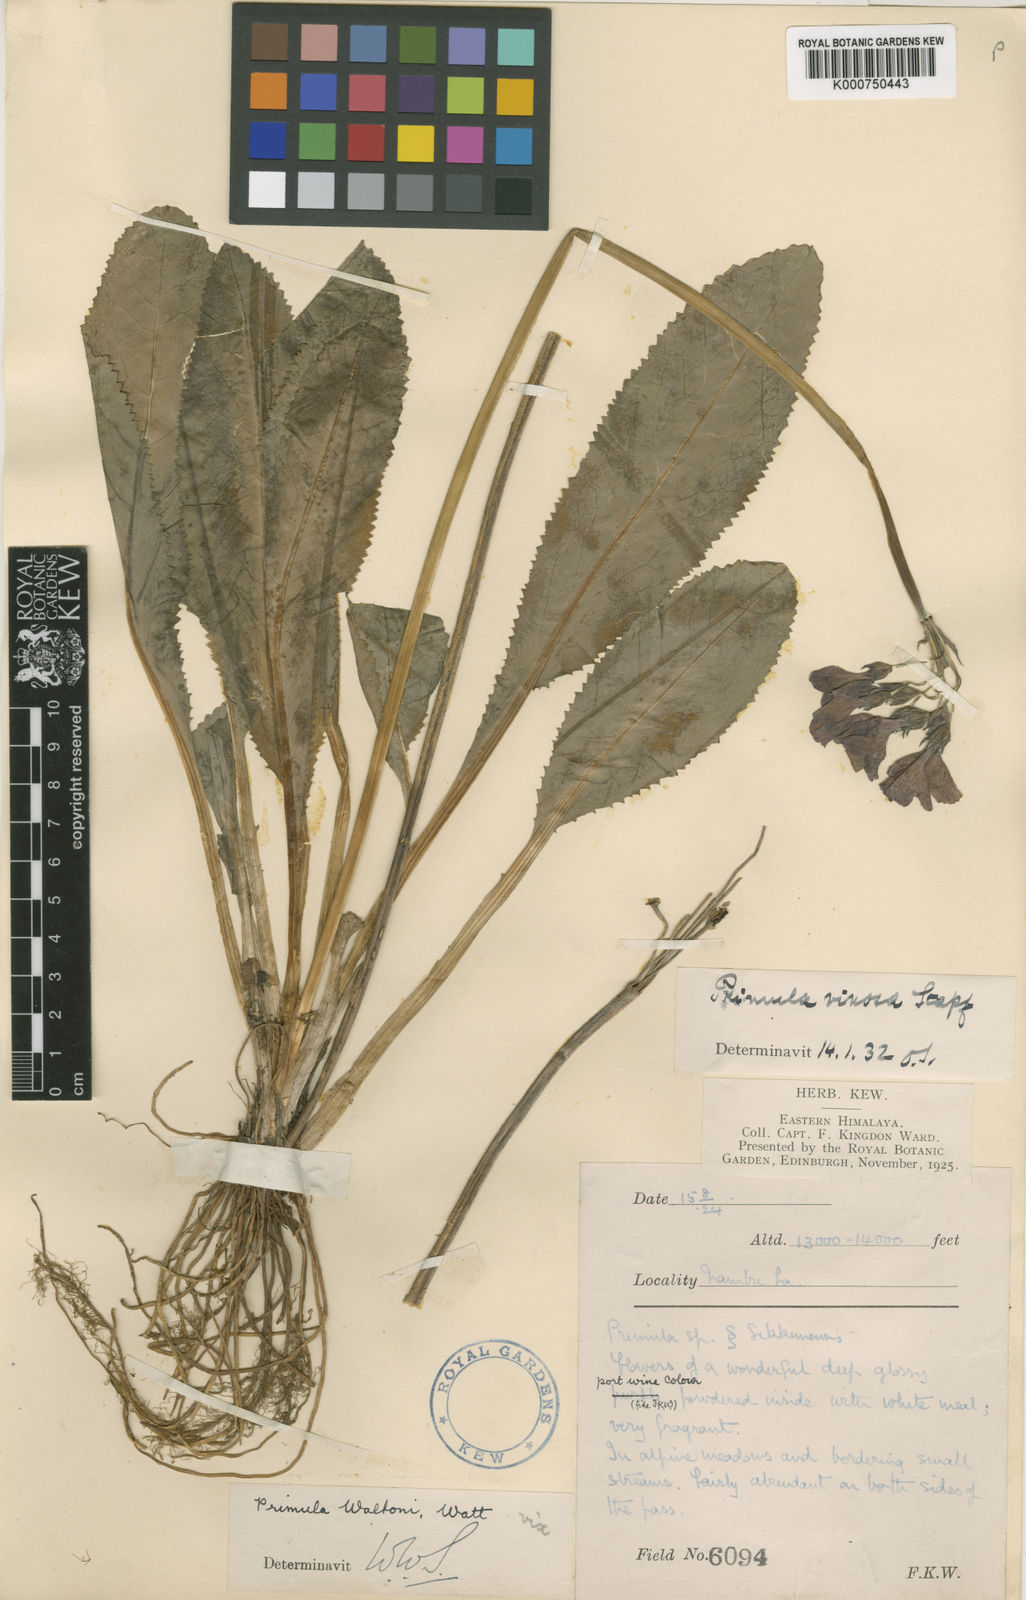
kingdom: Plantae
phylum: Tracheophyta
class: Magnoliopsida
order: Ericales
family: Primulaceae
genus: Primula
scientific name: Primula waltonii
